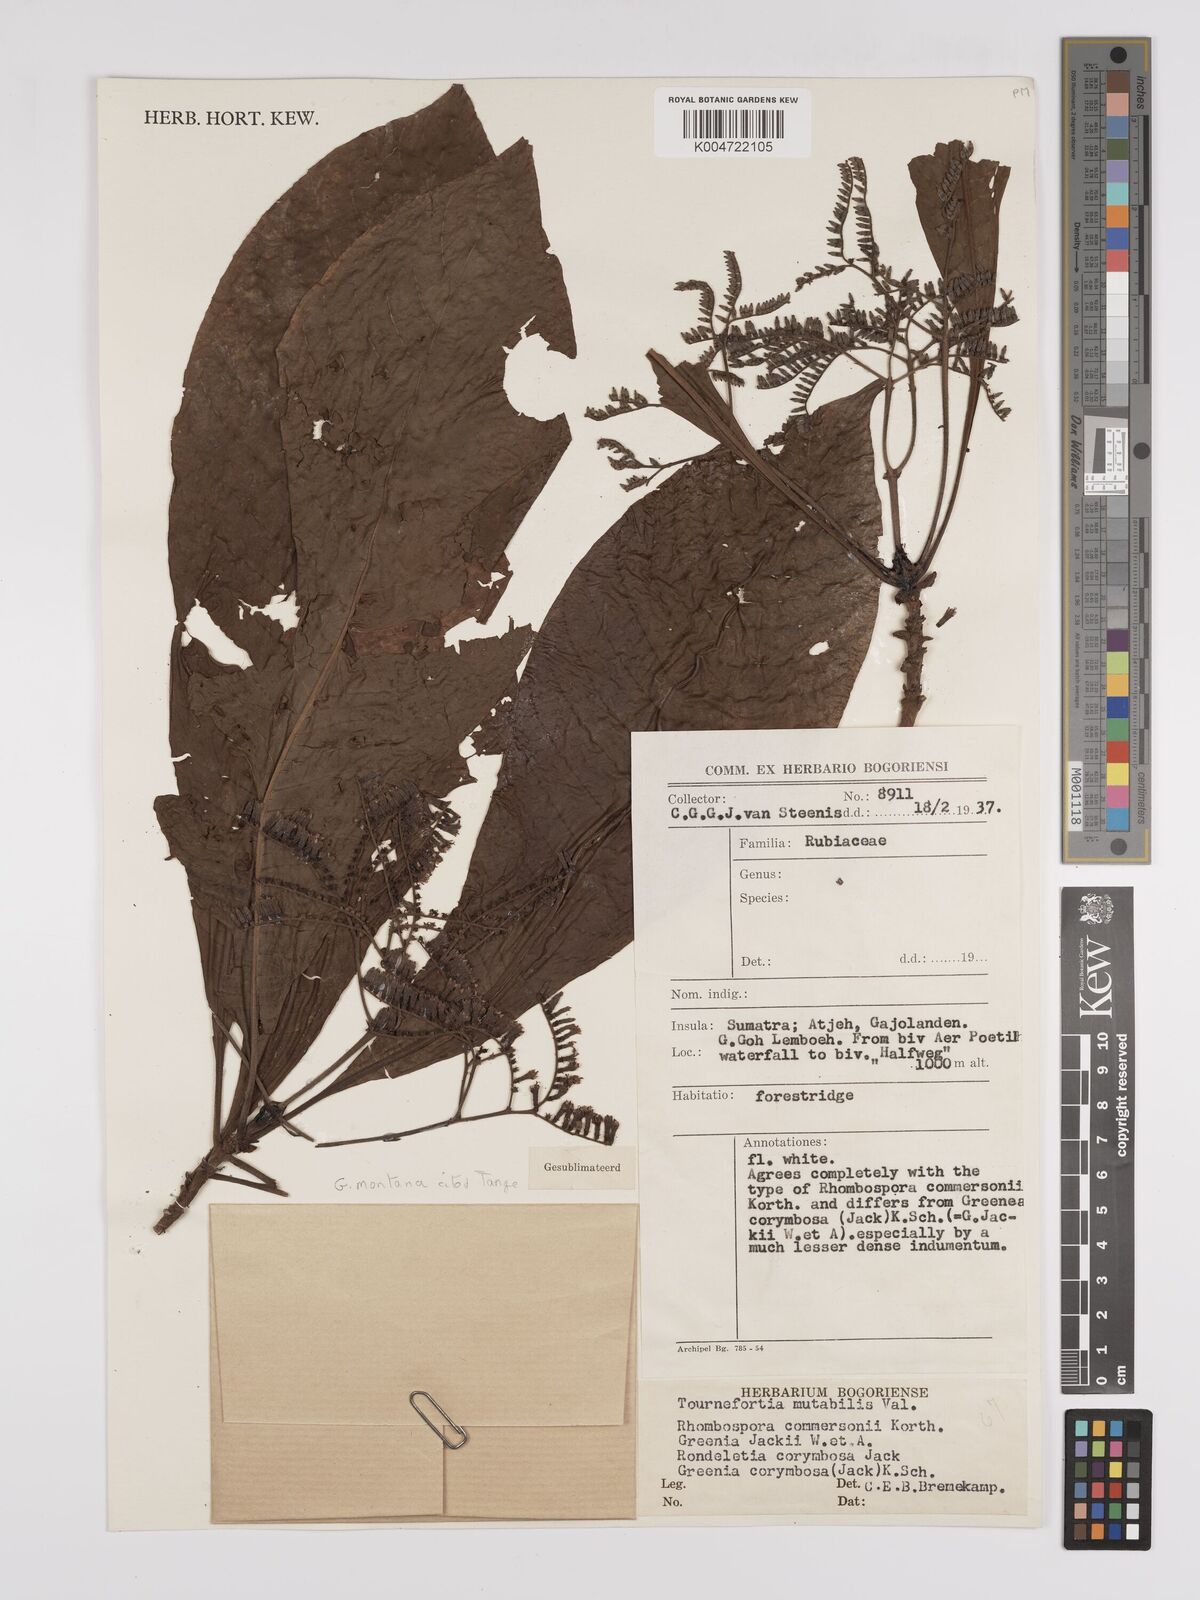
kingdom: Plantae
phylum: Tracheophyta
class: Magnoliopsida
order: Gentianales
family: Rubiaceae
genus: Greenea
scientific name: Greenea montana
